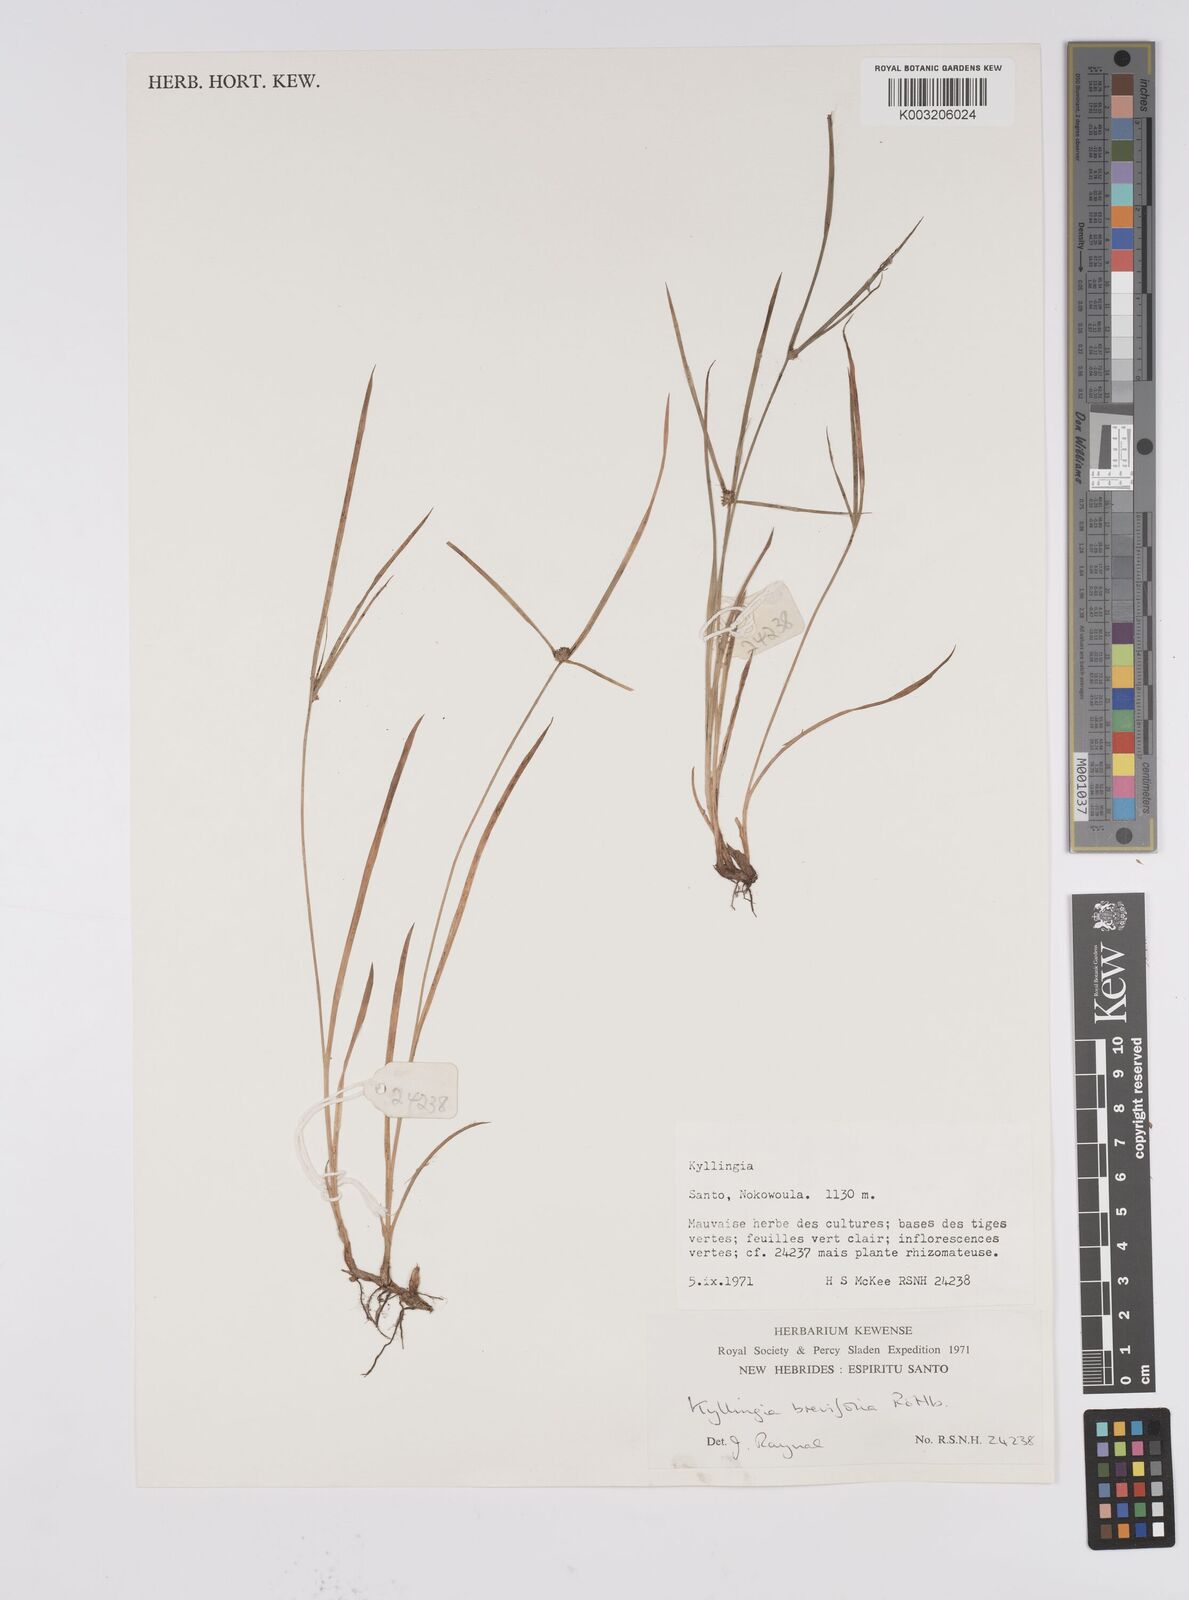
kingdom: Plantae
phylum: Tracheophyta
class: Liliopsida
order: Poales
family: Cyperaceae
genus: Cyperus
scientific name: Cyperus brevifolius
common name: Globe kyllinga
